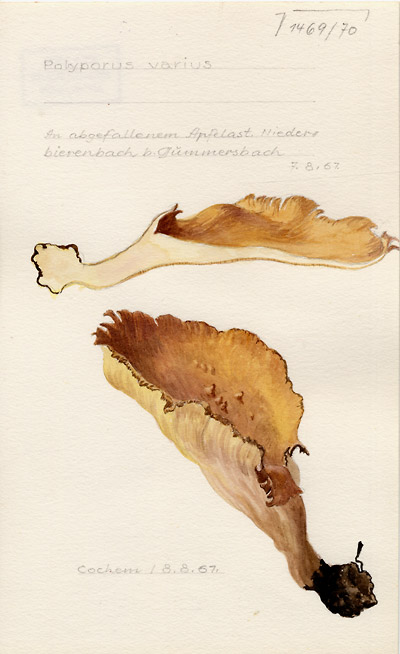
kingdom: Fungi
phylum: Basidiomycota
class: Agaricomycetes
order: Polyporales
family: Polyporaceae
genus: Polyporus
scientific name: Polyporus varius
